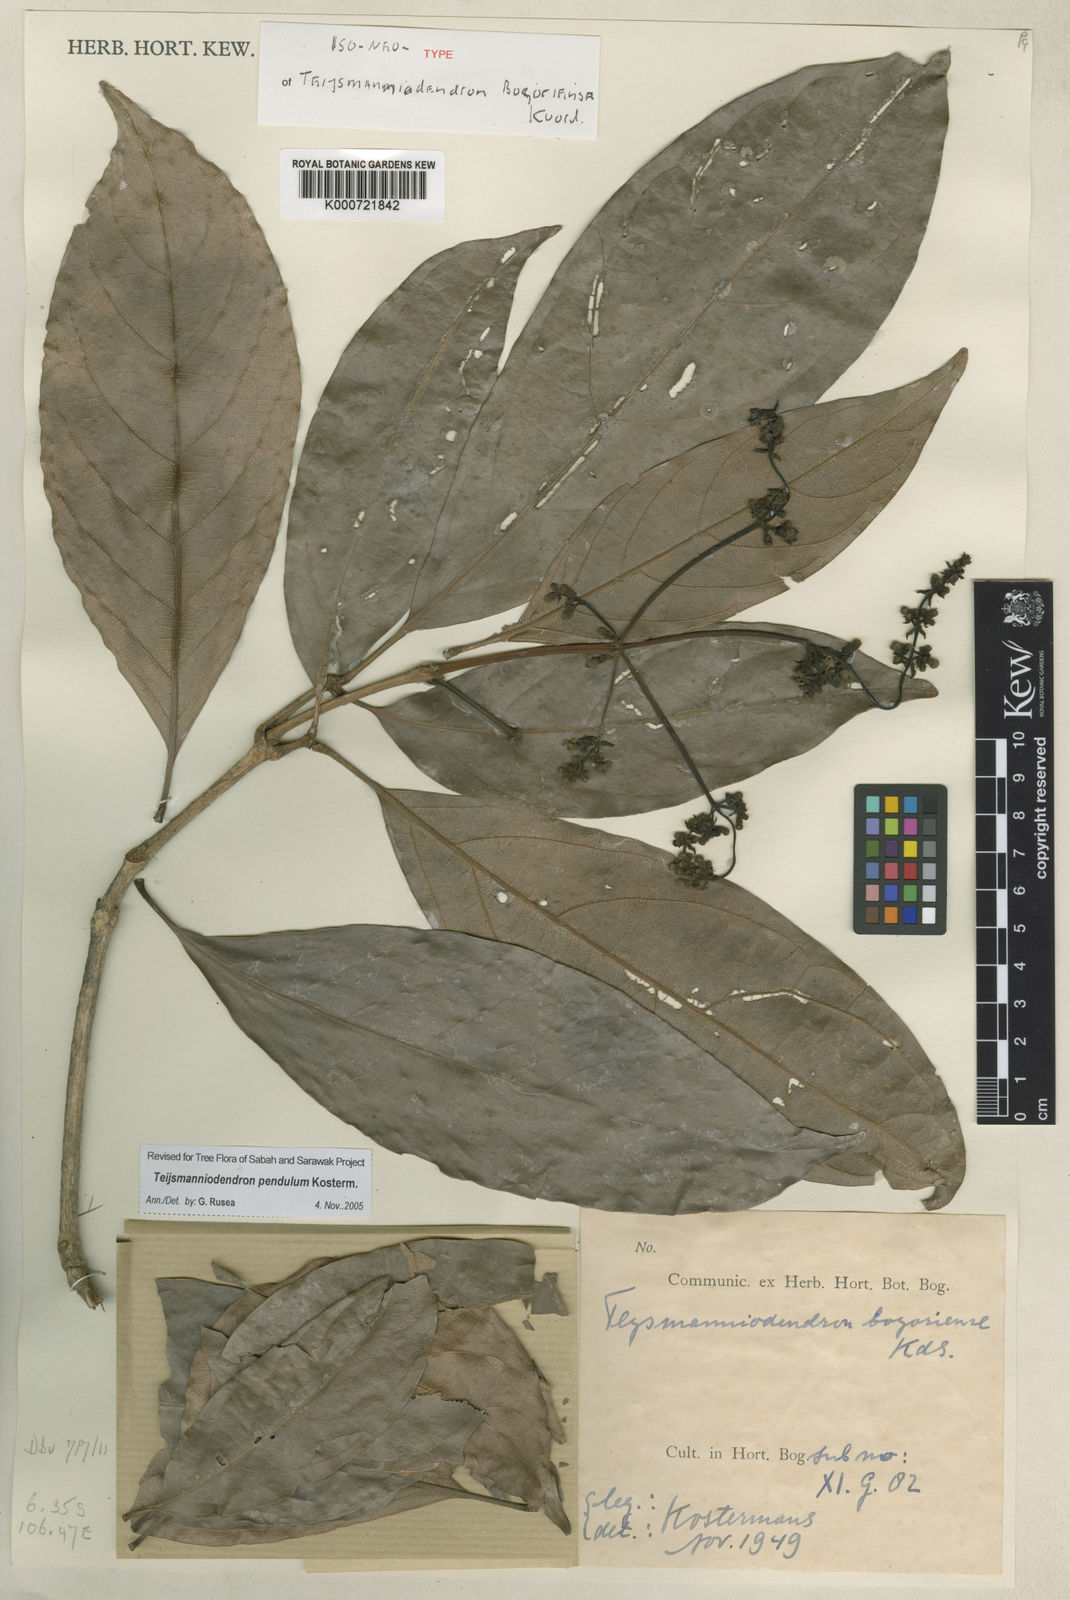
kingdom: Plantae
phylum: Tracheophyta
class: Magnoliopsida
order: Lamiales
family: Lamiaceae
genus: Teijsmanniodendron
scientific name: Teijsmanniodendron bogoriense
